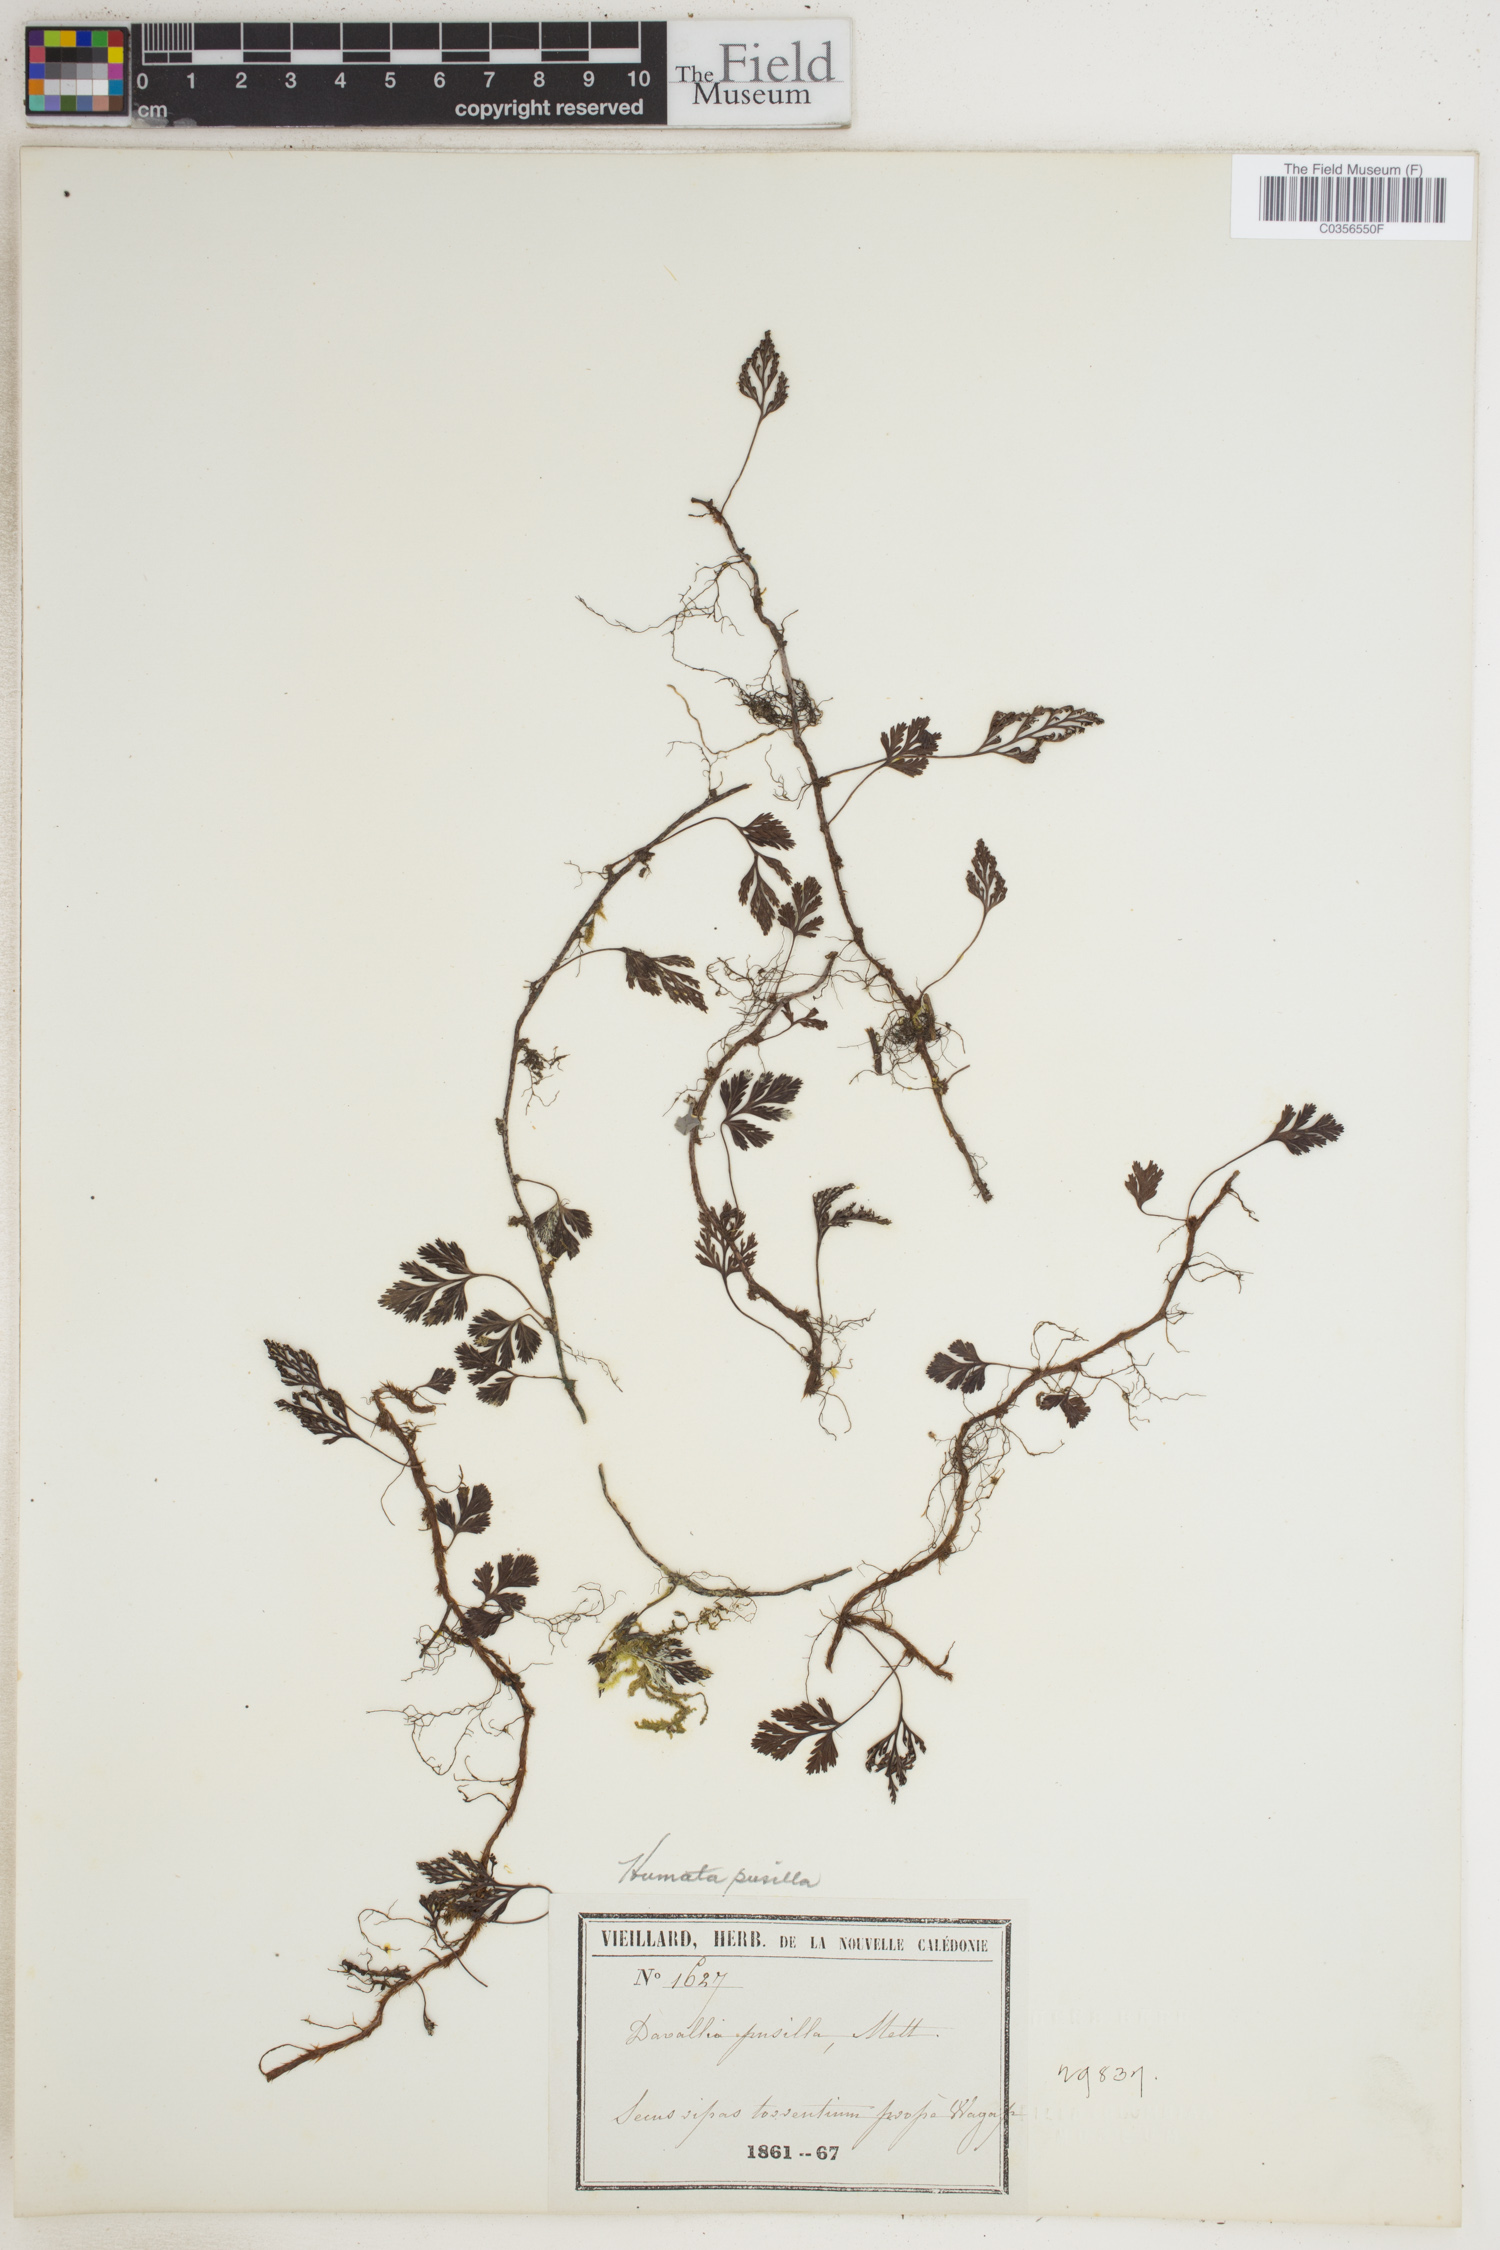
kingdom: Plantae
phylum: Tracheophyta
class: Polypodiopsida
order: Polypodiales
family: Davalliaceae
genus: Davallia
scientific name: Davallia
